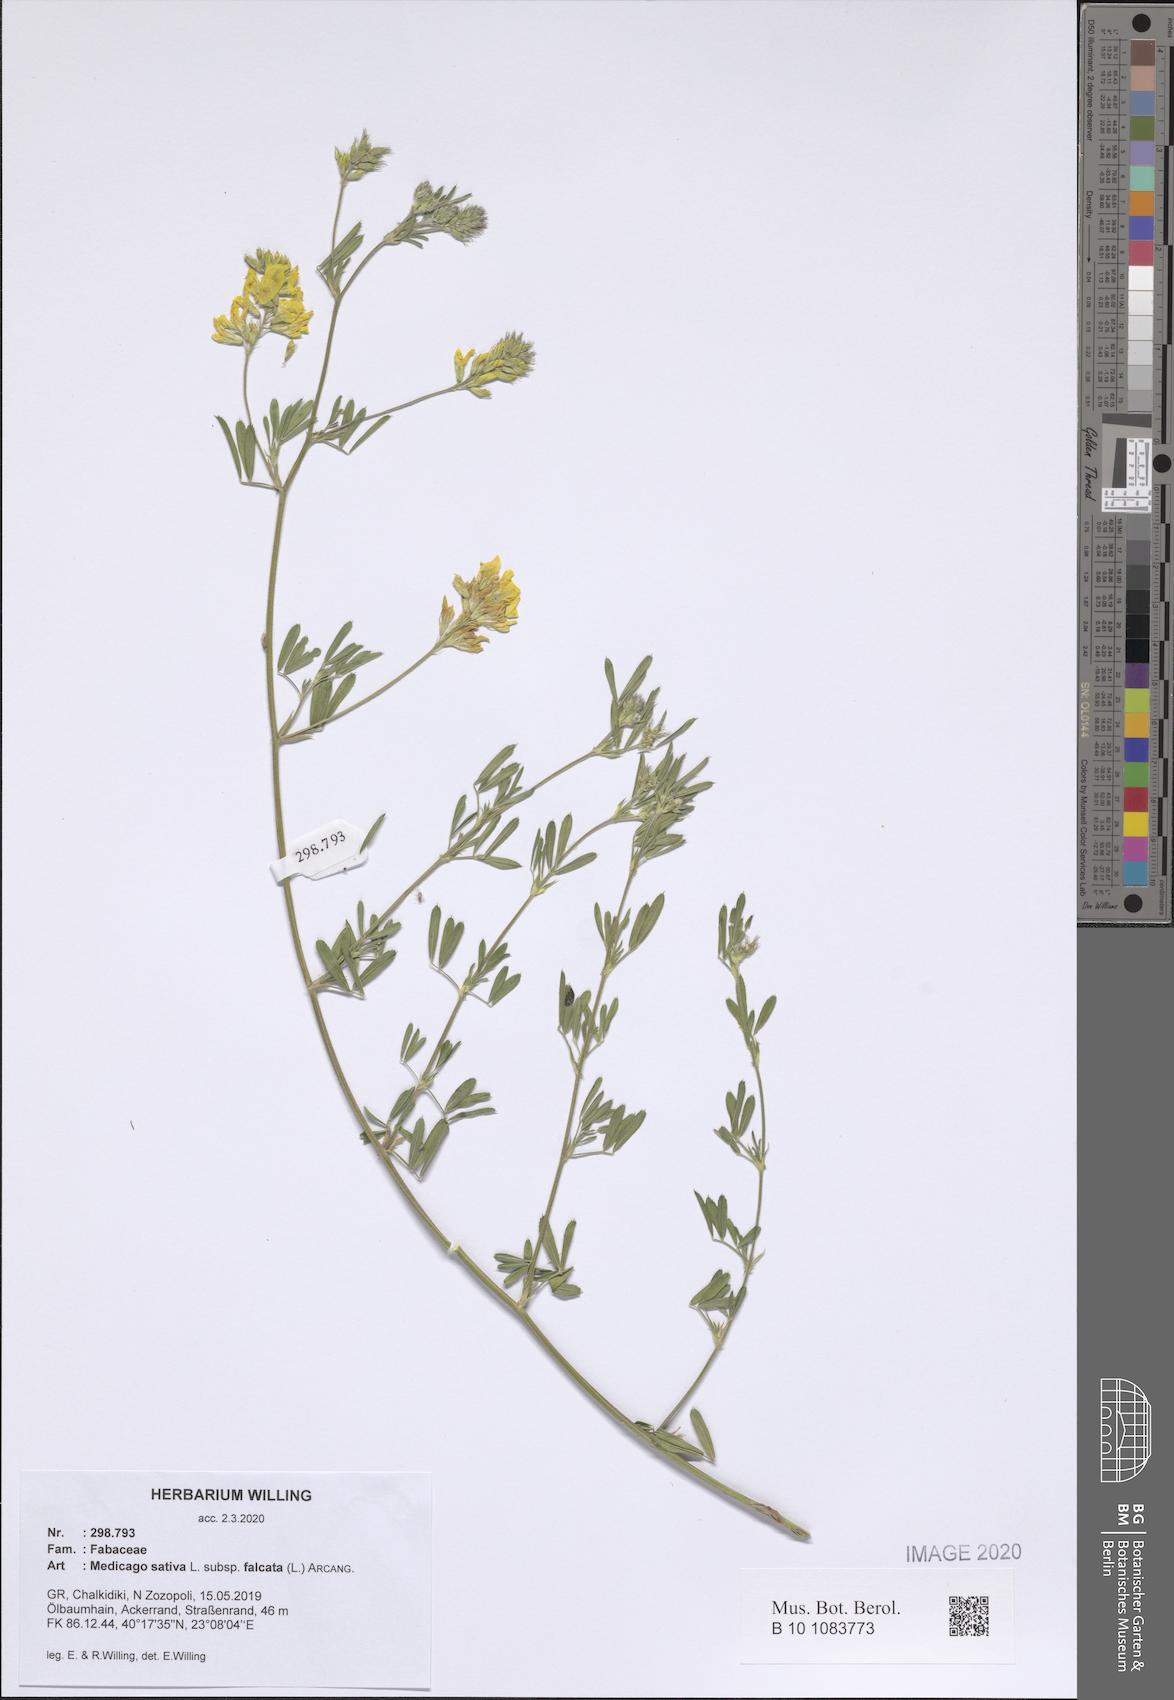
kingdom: Plantae
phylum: Tracheophyta
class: Magnoliopsida
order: Fabales
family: Fabaceae
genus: Medicago
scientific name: Medicago falcata
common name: Sickle medick
